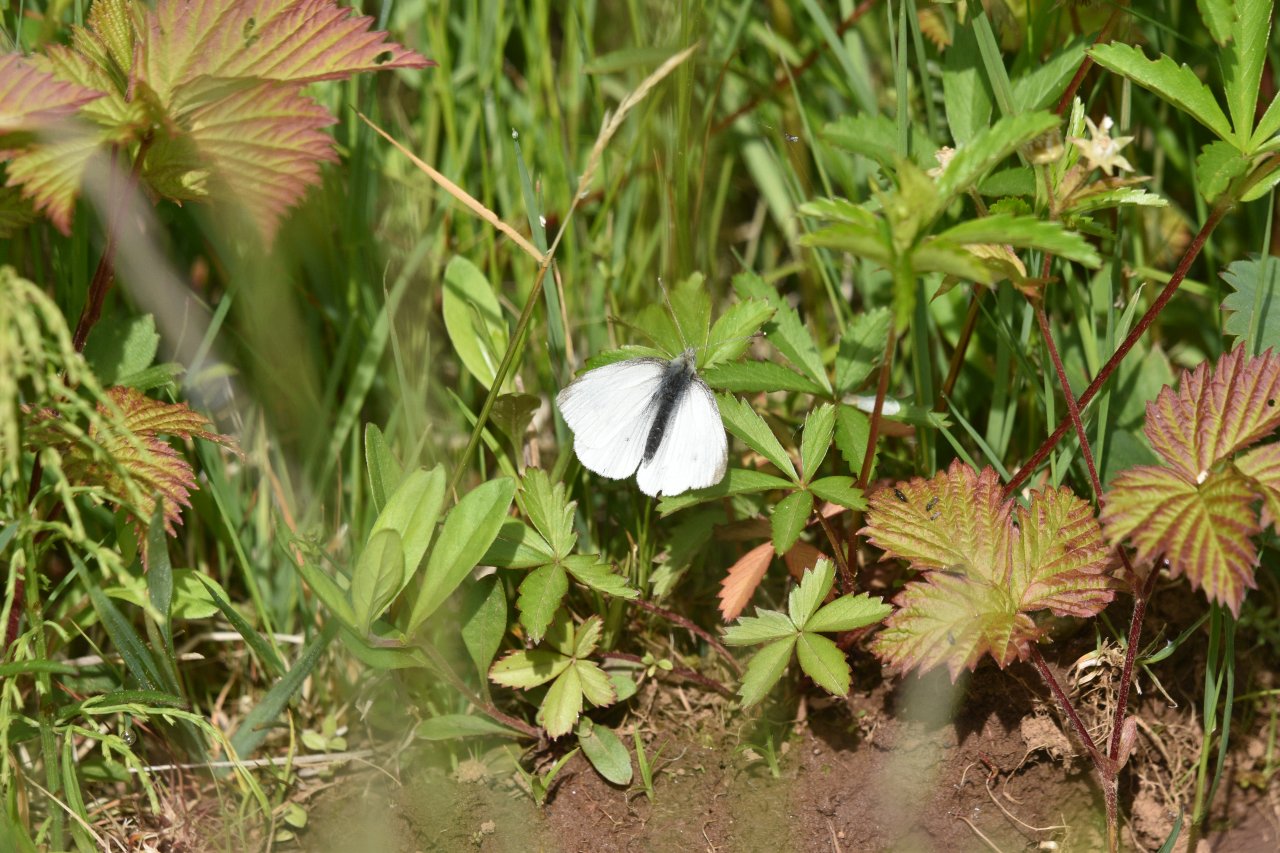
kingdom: Animalia
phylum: Arthropoda
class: Insecta
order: Lepidoptera
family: Pieridae
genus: Pieris
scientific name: Pieris rapae
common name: Cabbage White
